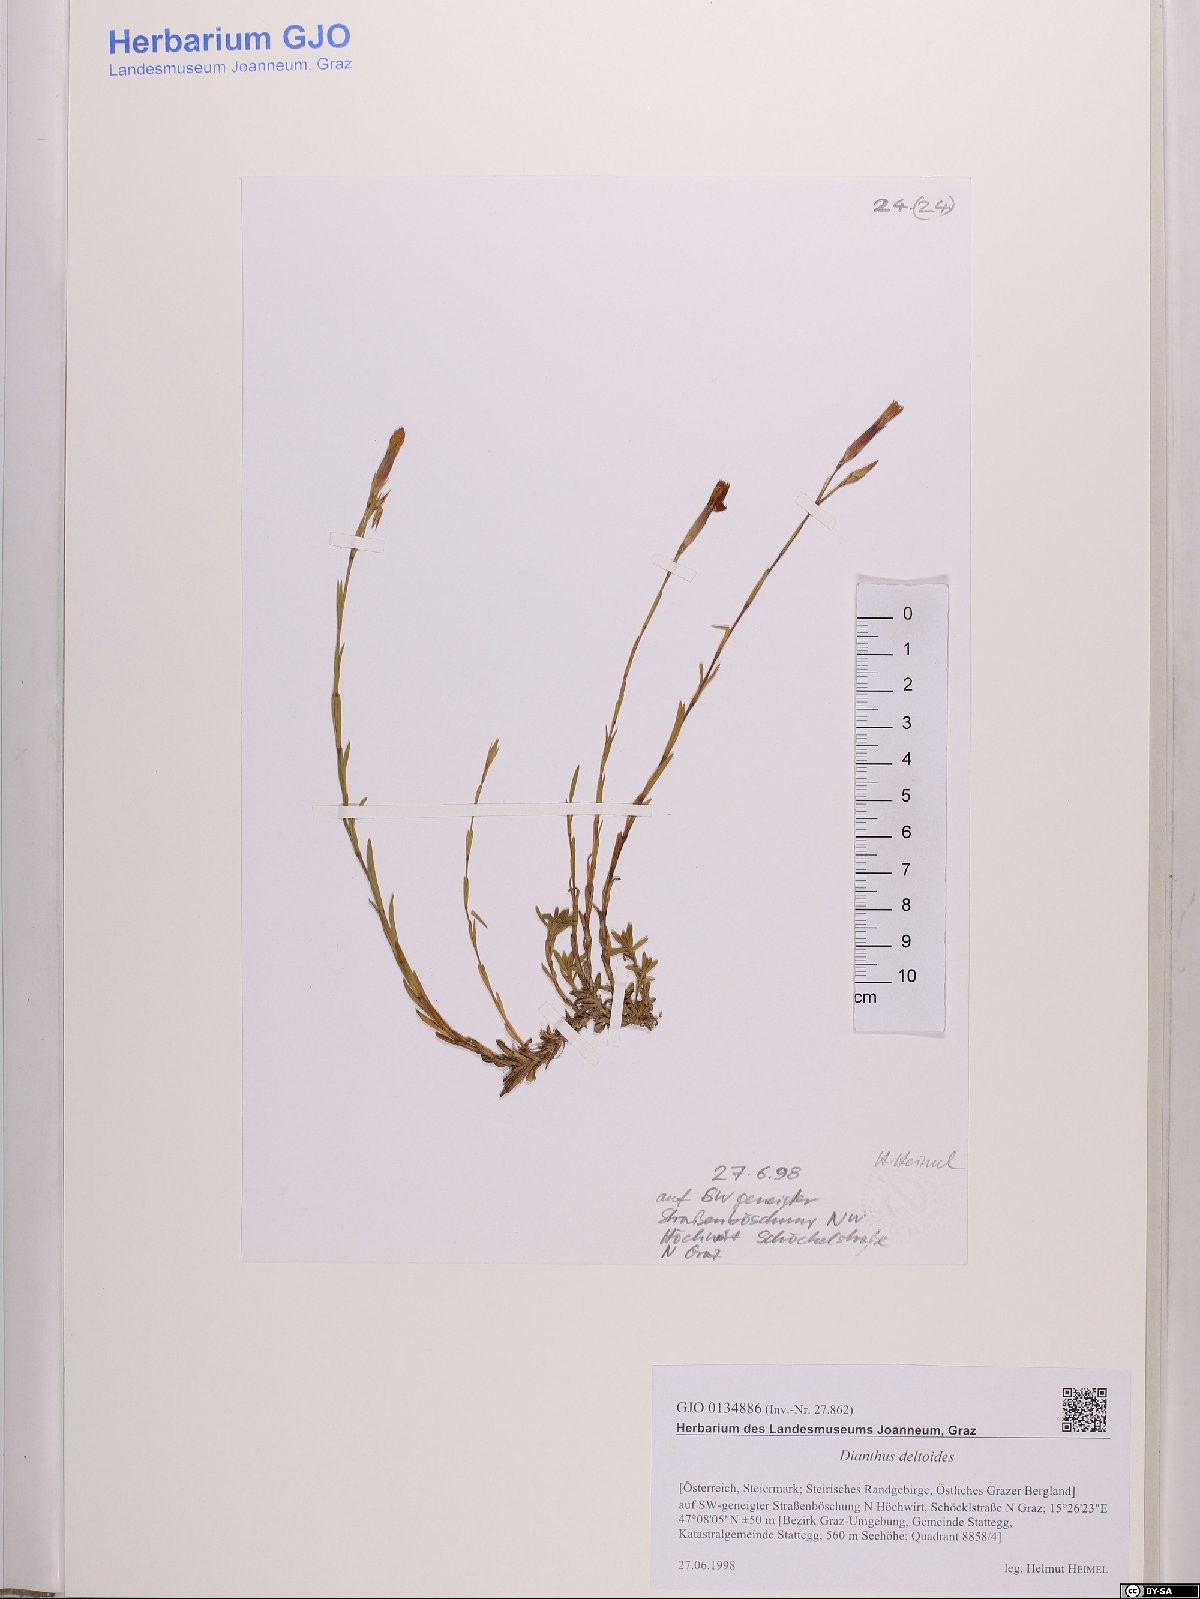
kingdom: Plantae
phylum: Tracheophyta
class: Magnoliopsida
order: Caryophyllales
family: Caryophyllaceae
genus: Dianthus
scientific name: Dianthus deltoides
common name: Maiden pink
